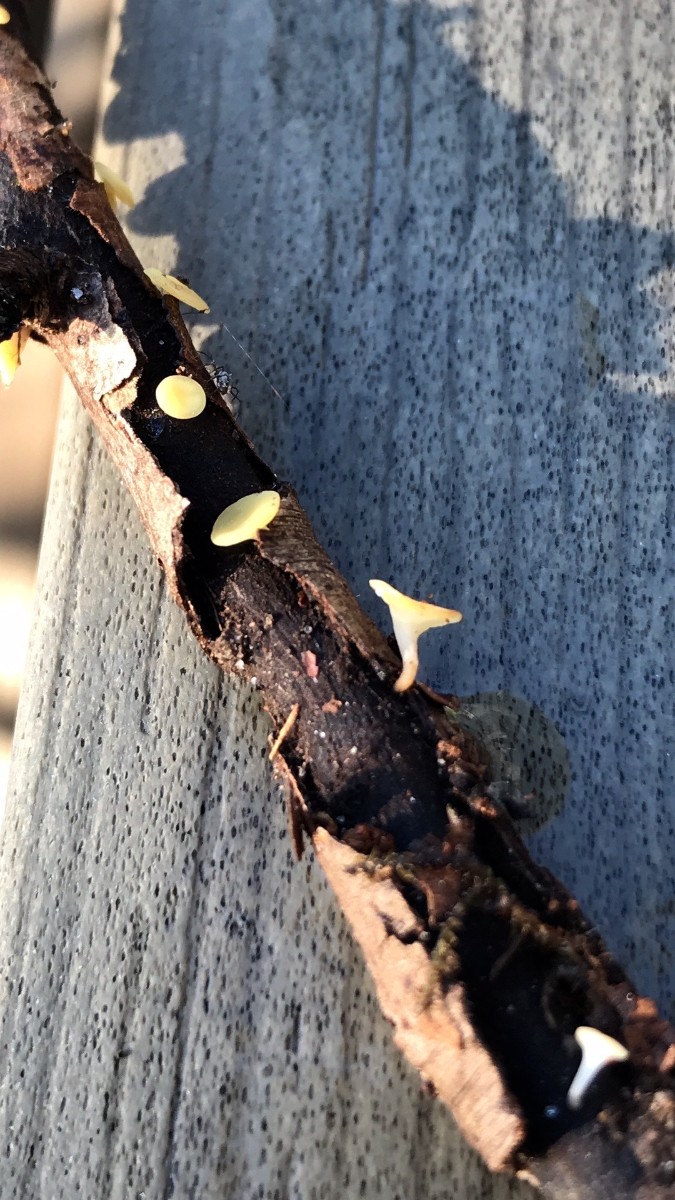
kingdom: Fungi
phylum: Ascomycota
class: Leotiomycetes
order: Helotiales
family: Helotiaceae
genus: Hymenoscyphus
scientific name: Hymenoscyphus serotinus
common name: krumsporet stilkskive
